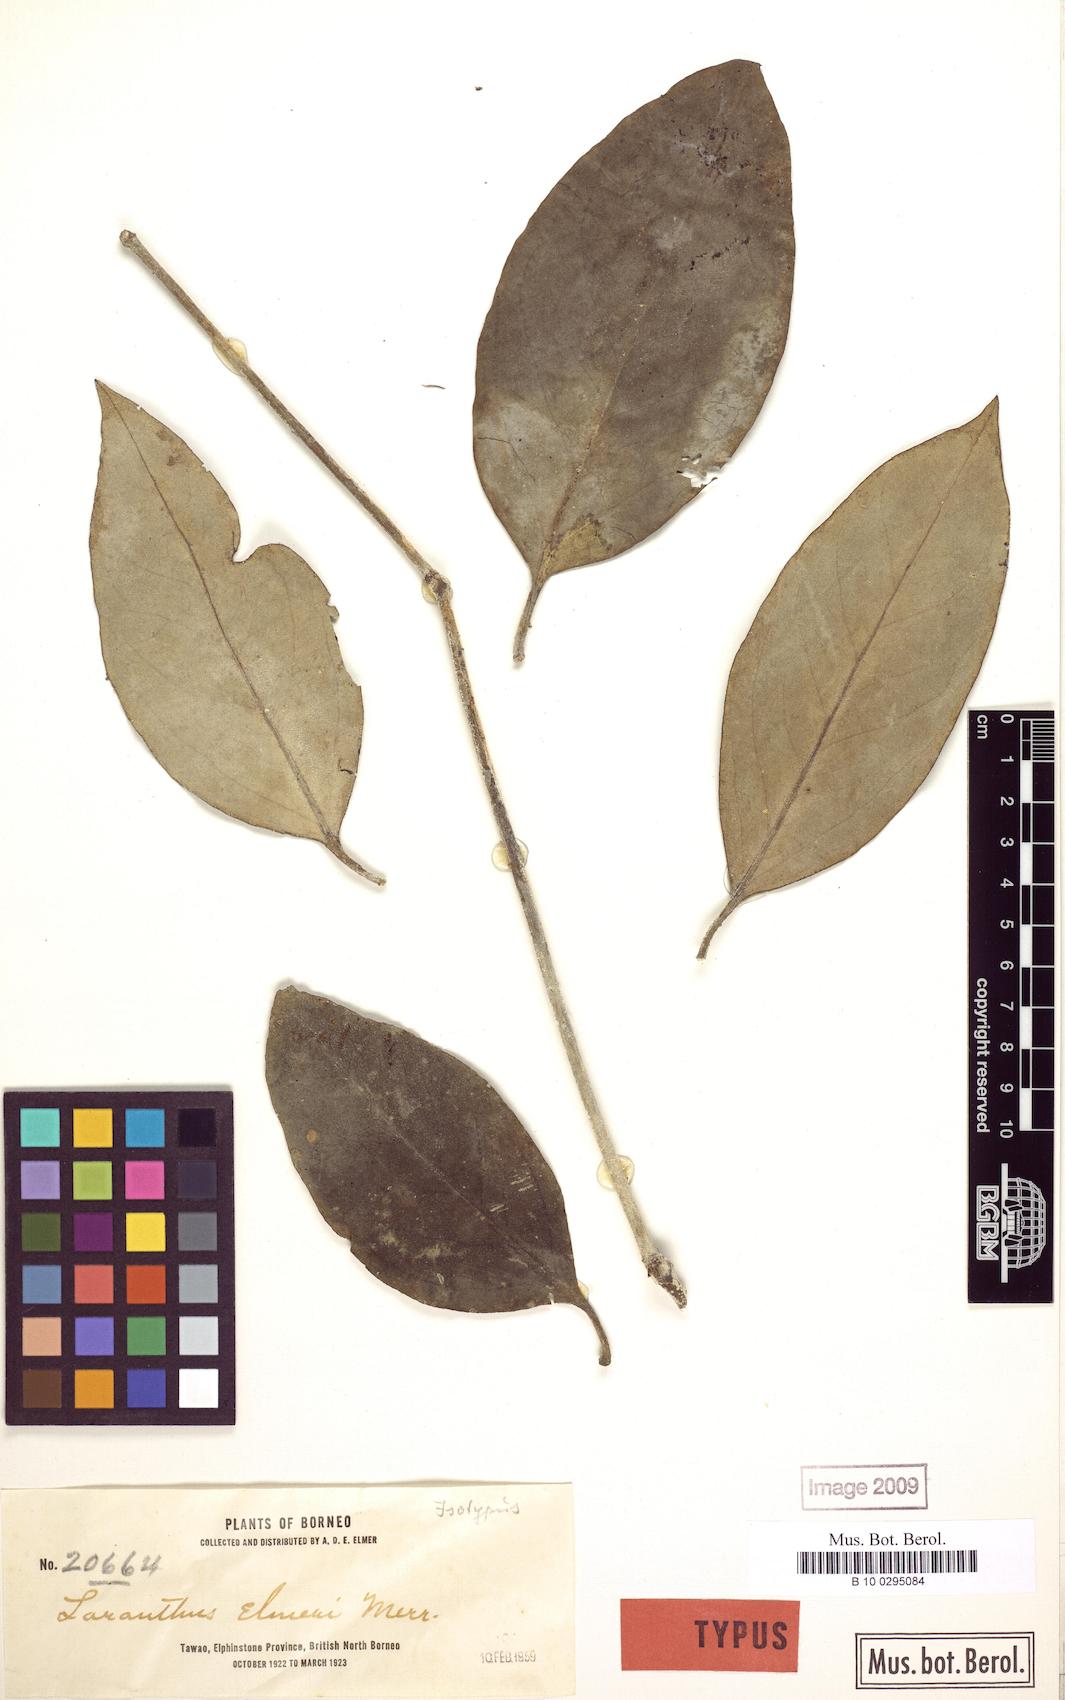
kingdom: Plantae
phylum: Tracheophyta
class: Magnoliopsida
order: Santalales
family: Loranthaceae
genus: Lampas
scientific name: Lampas elmeri
